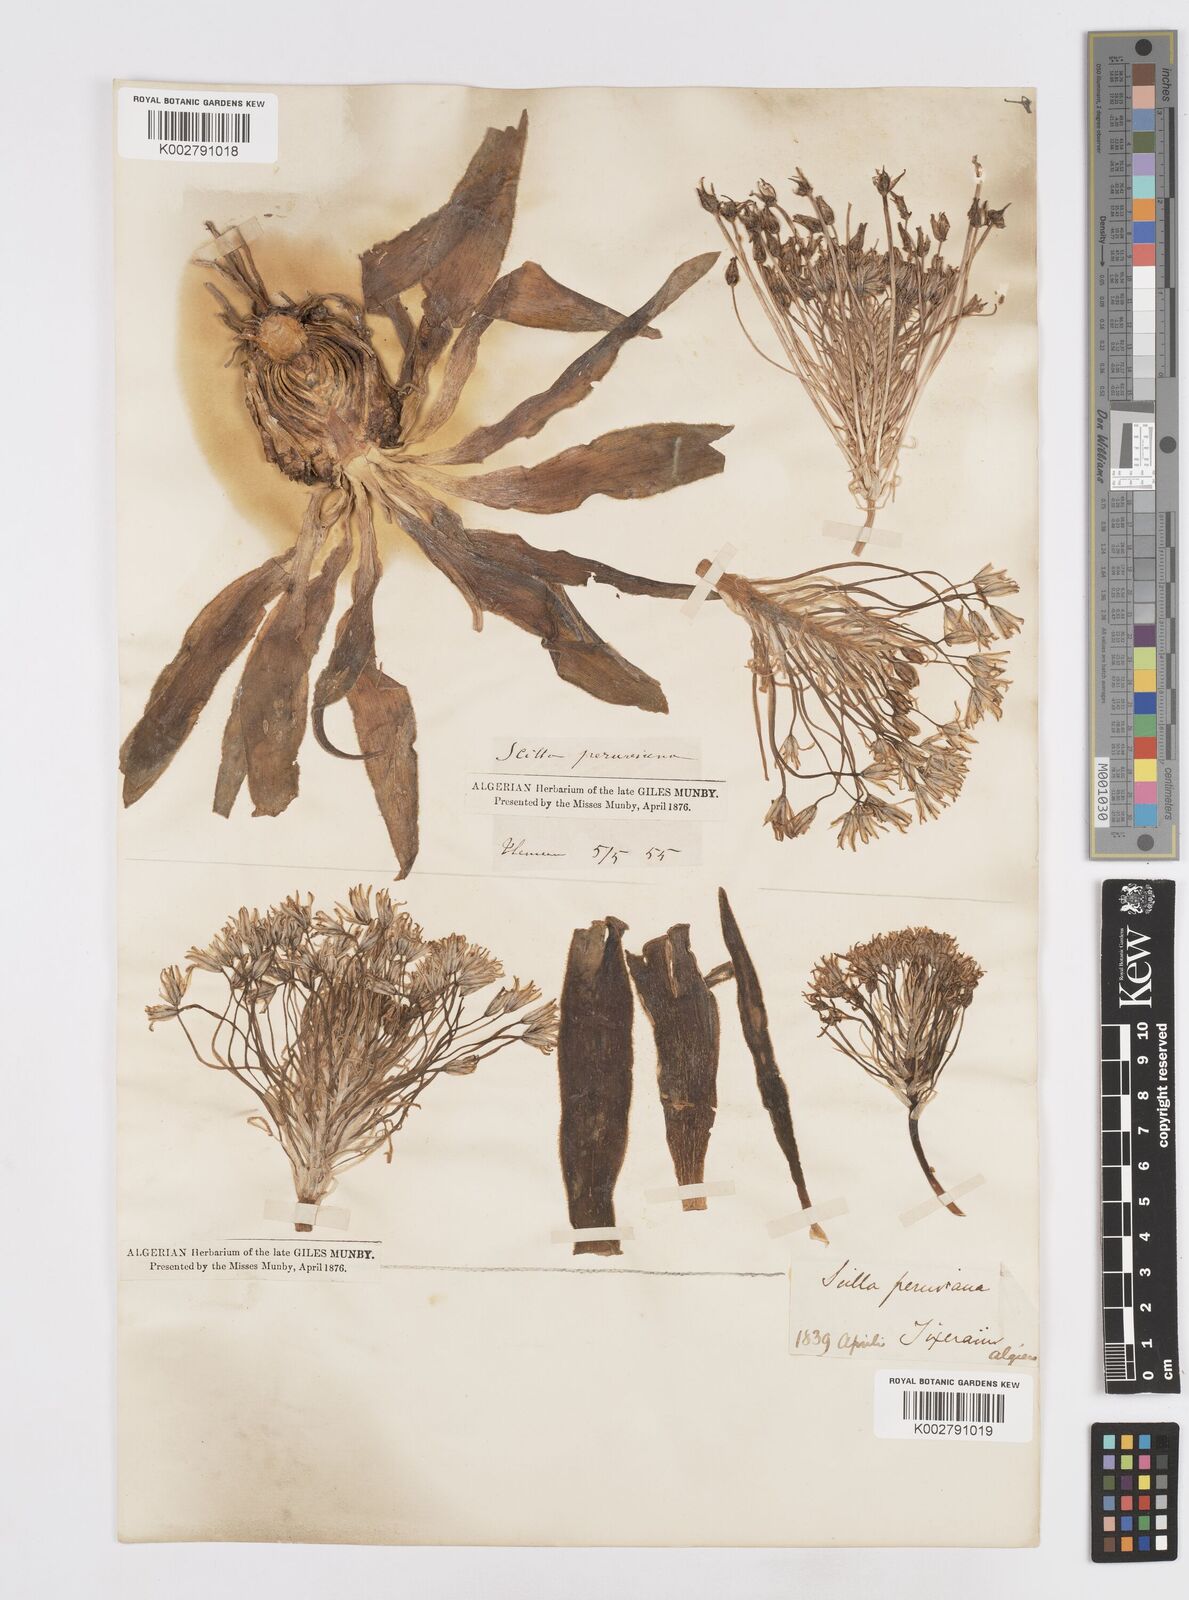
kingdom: Plantae
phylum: Tracheophyta
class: Liliopsida
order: Asparagales
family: Asparagaceae
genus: Scilla
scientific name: Scilla peruviana
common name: Portuguese squill
